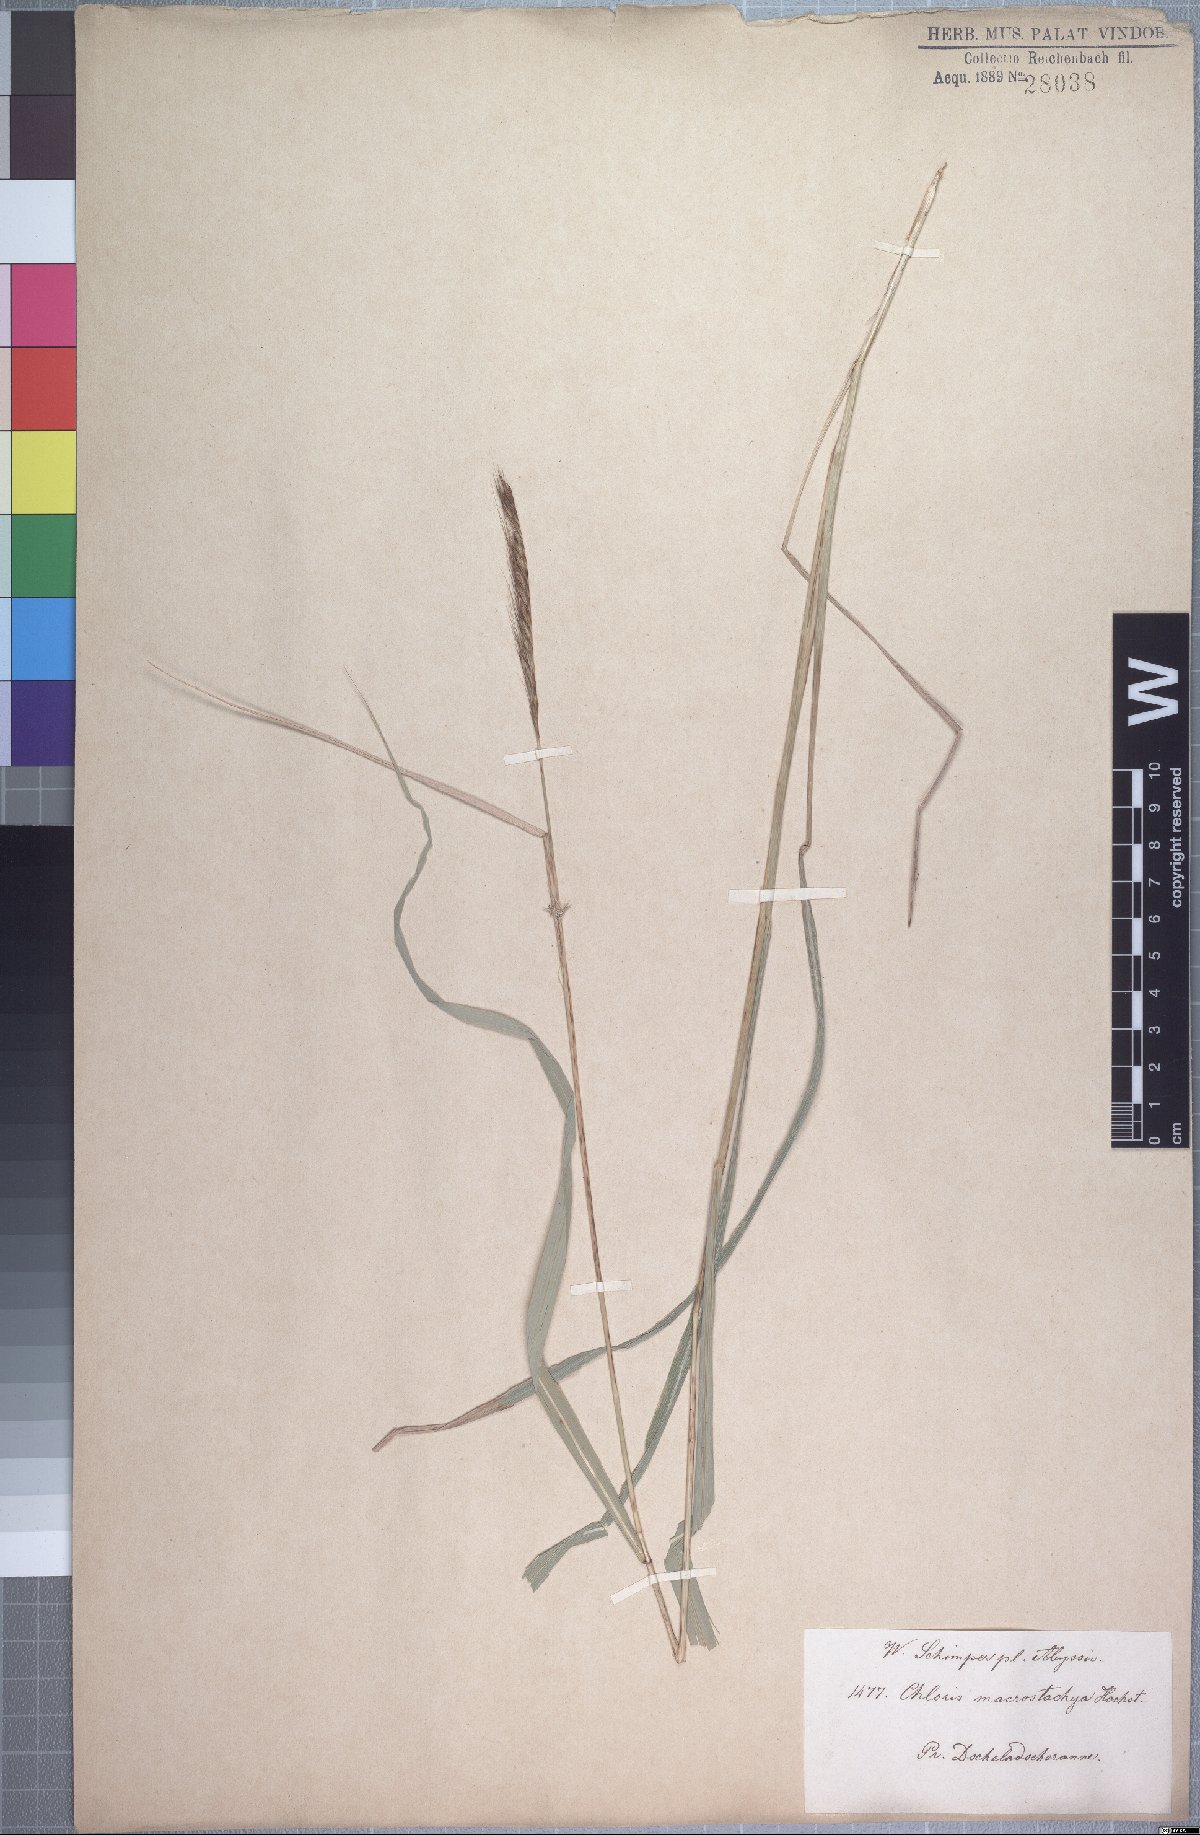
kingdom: Plantae
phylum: Tracheophyta
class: Liliopsida
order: Poales
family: Poaceae
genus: Enteropogon
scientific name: Enteropogon macrostachyus
